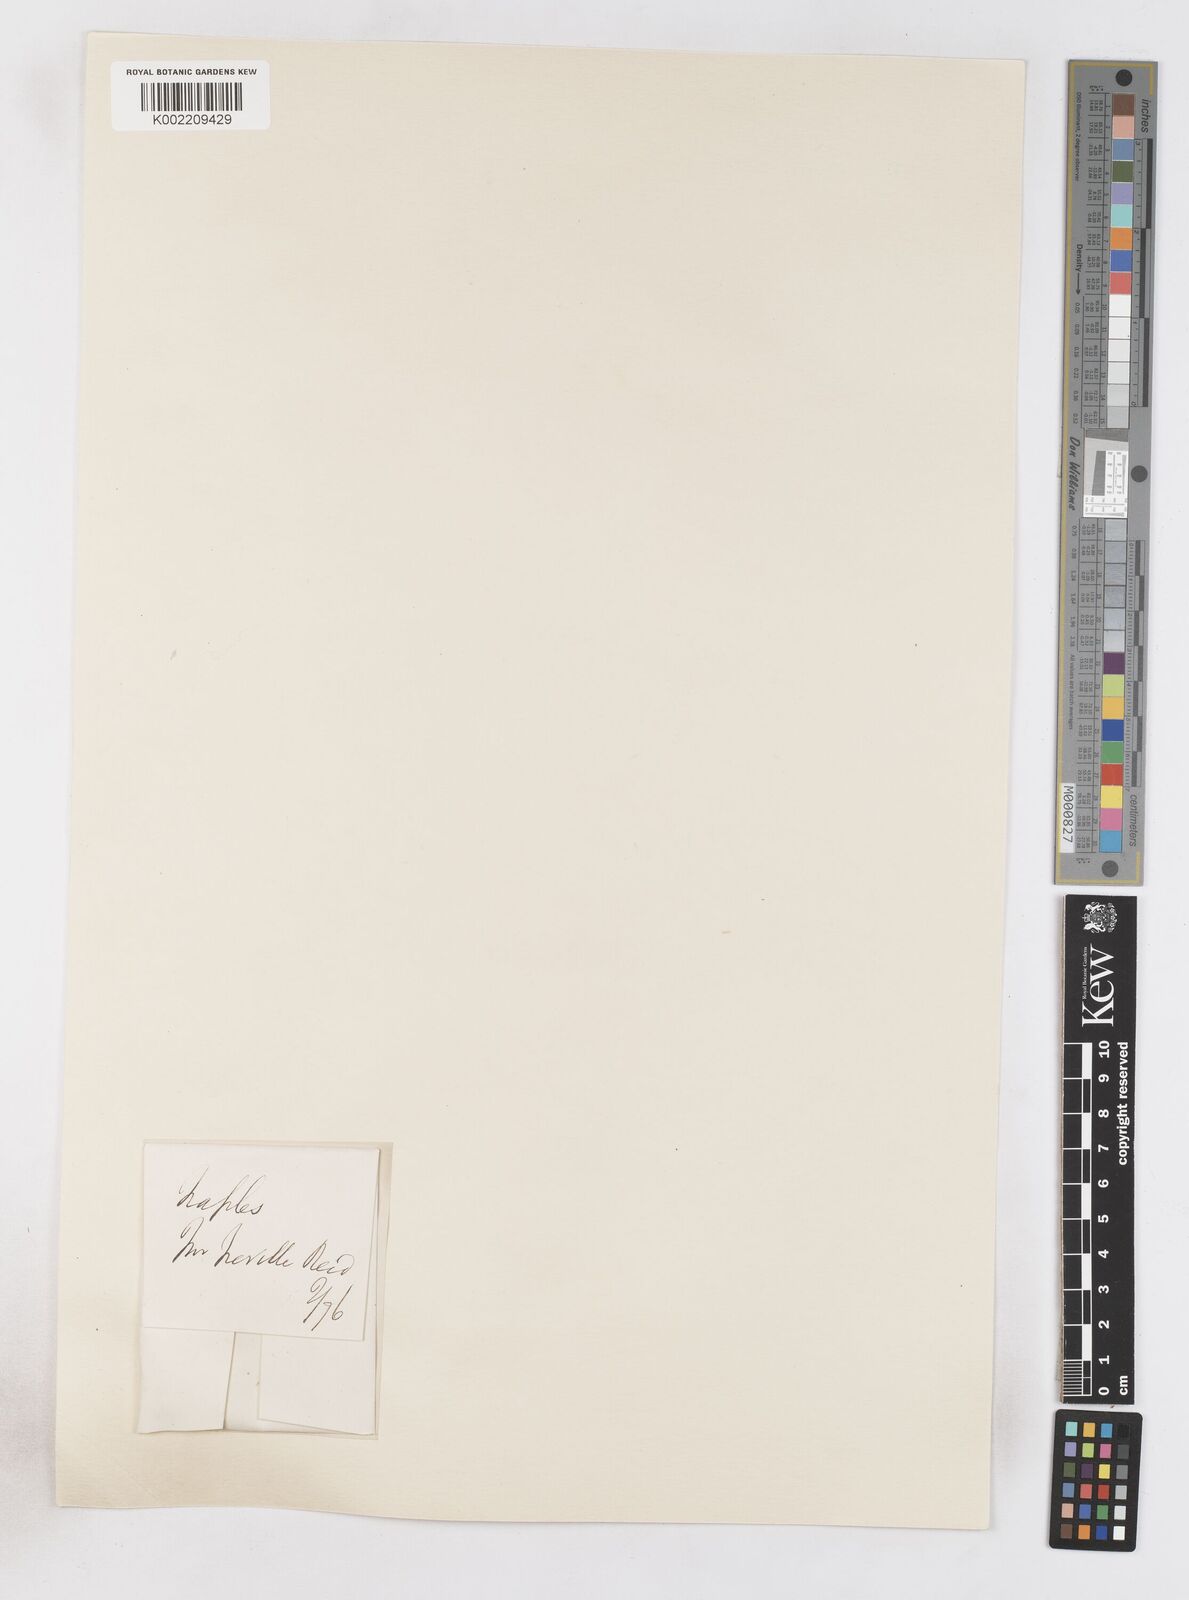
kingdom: Plantae
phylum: Tracheophyta
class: Liliopsida
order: Asparagales
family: Iridaceae
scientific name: Iridaceae
